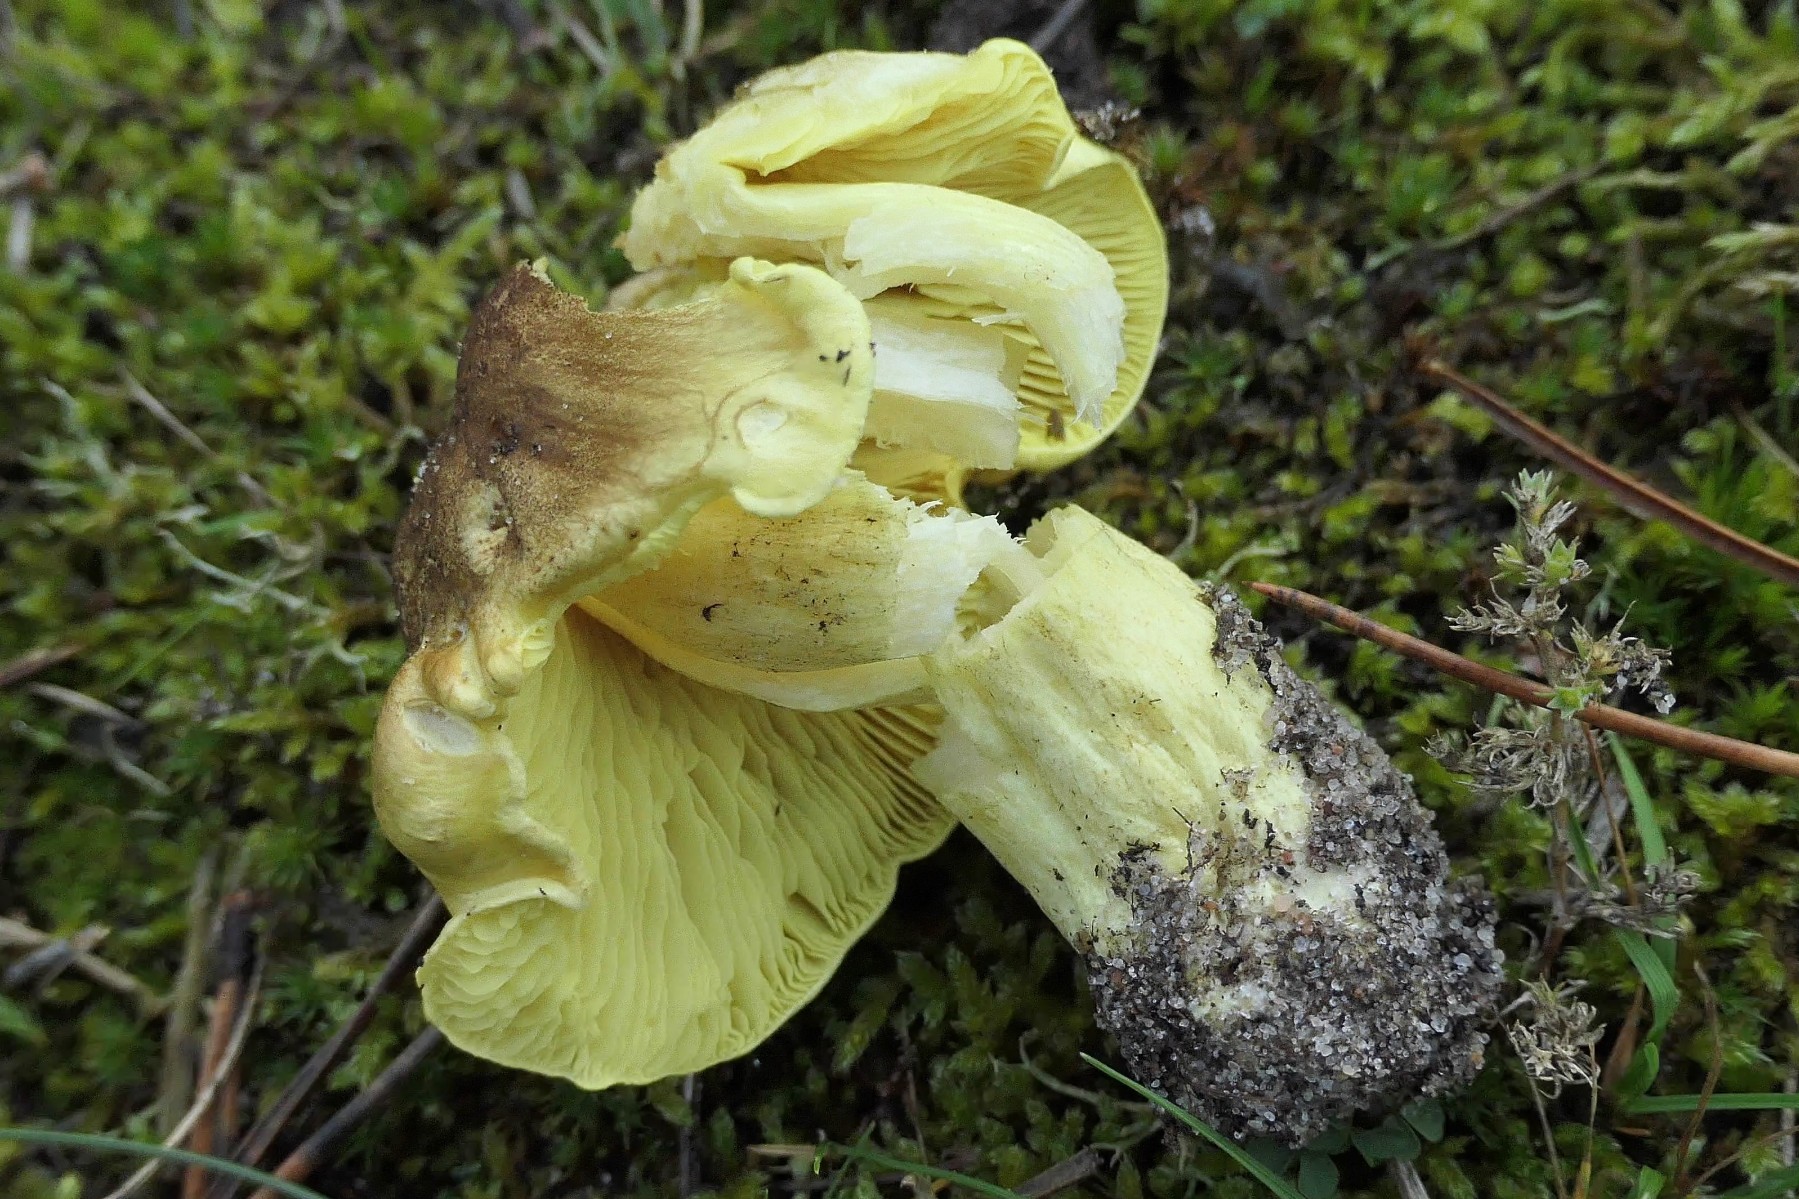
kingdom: Fungi
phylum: Basidiomycota
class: Agaricomycetes
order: Agaricales
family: Tricholomataceae
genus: Tricholoma
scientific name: Tricholoma equestre
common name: ægte ridderhat
